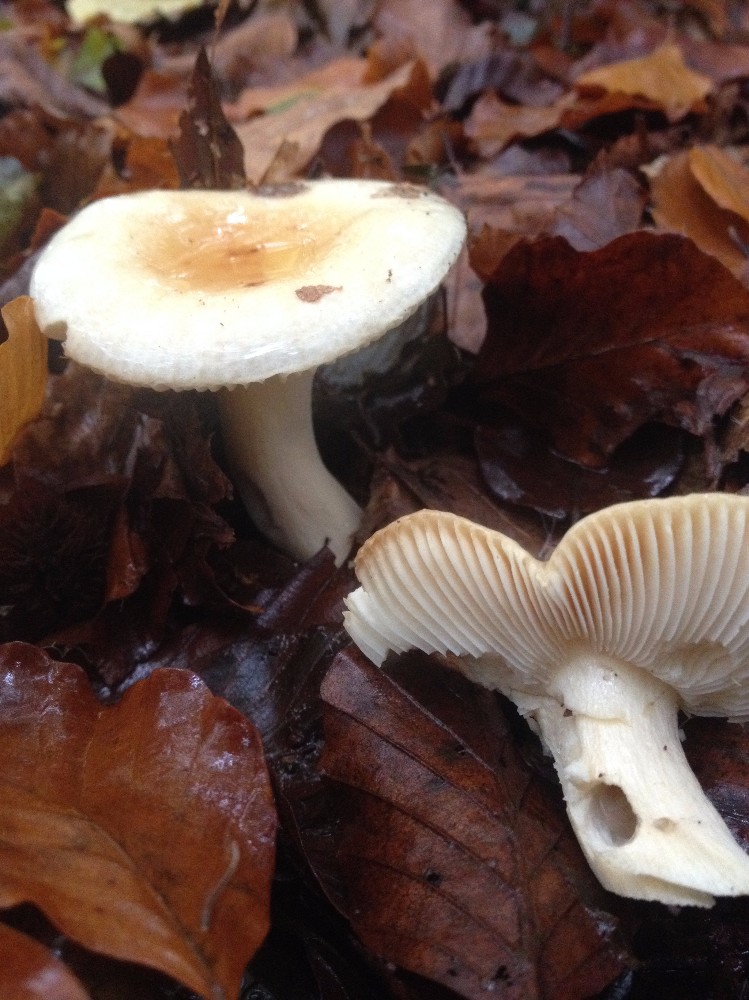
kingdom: Fungi
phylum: Basidiomycota
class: Agaricomycetes
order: Russulales
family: Russulaceae
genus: Russula
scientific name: Russula ochroleuca
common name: okkergul skørhat
